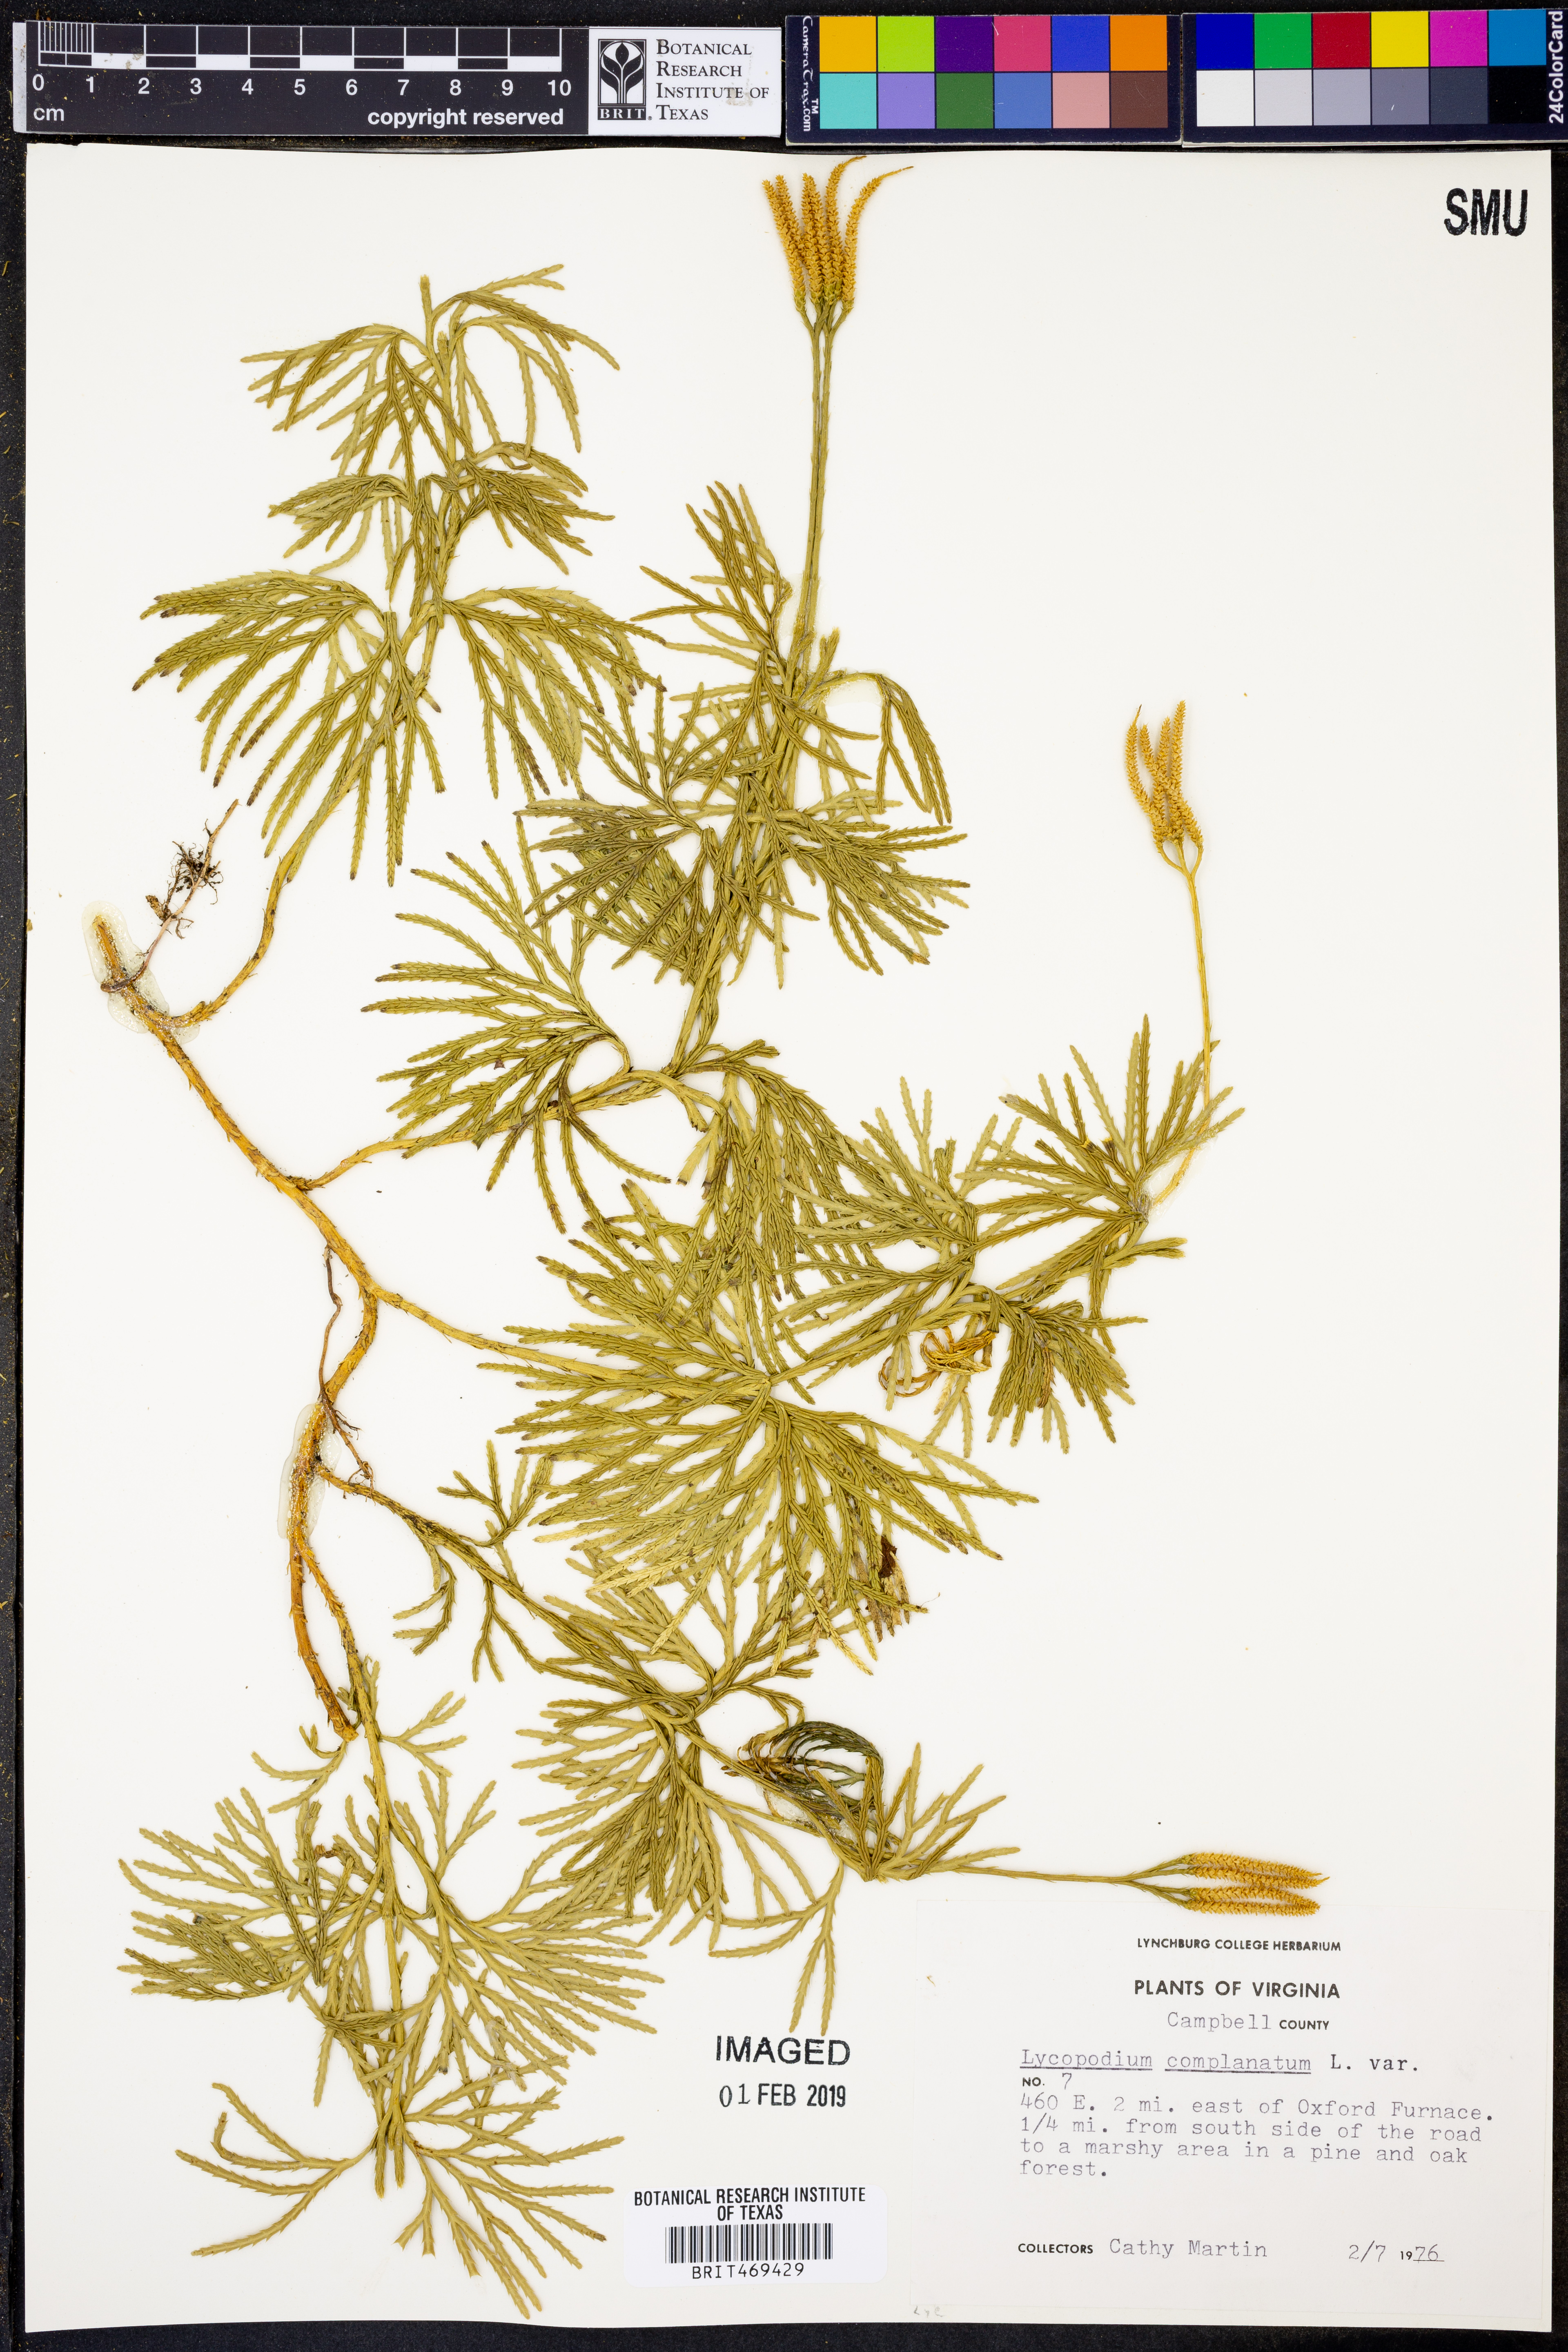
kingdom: Plantae
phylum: Tracheophyta
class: Lycopodiopsida
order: Lycopodiales
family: Lycopodiaceae
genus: Diphasiastrum
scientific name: Diphasiastrum complanatum
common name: Northern running-pine
